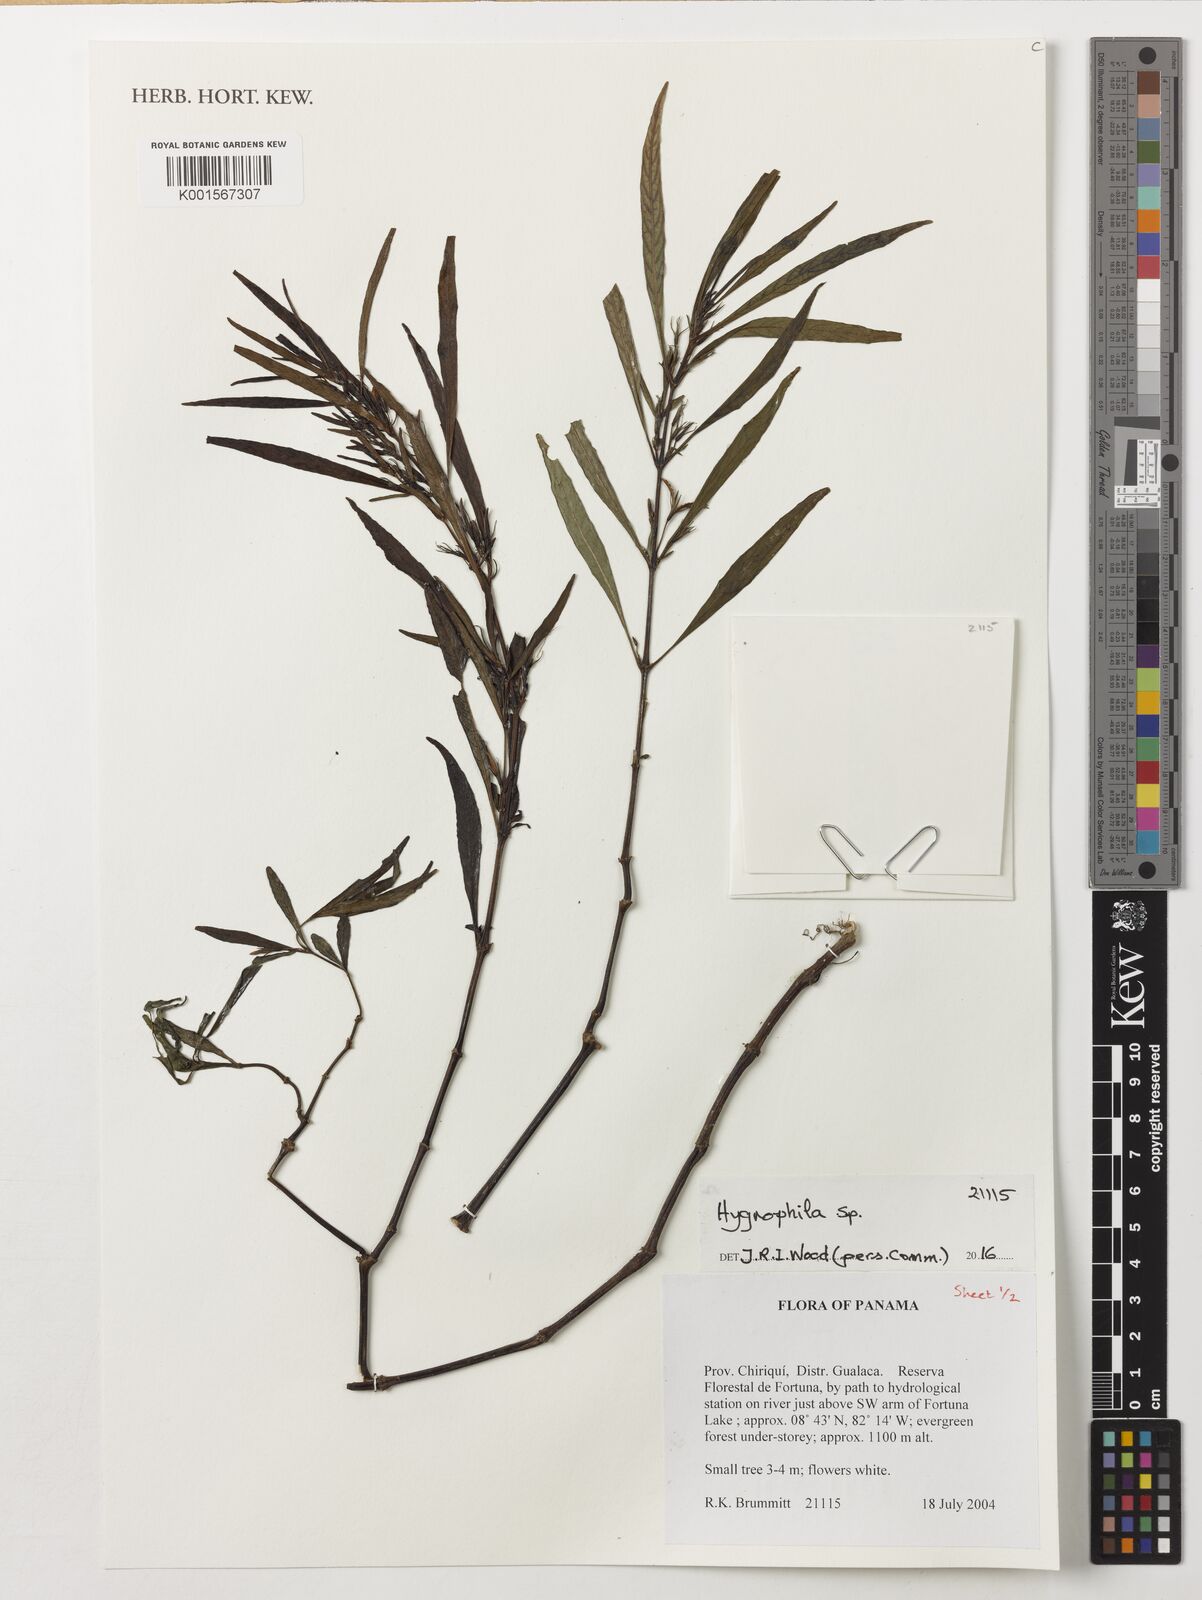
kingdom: Plantae
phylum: Tracheophyta
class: Magnoliopsida
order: Lamiales
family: Acanthaceae
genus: Hygrophila
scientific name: Hygrophila
